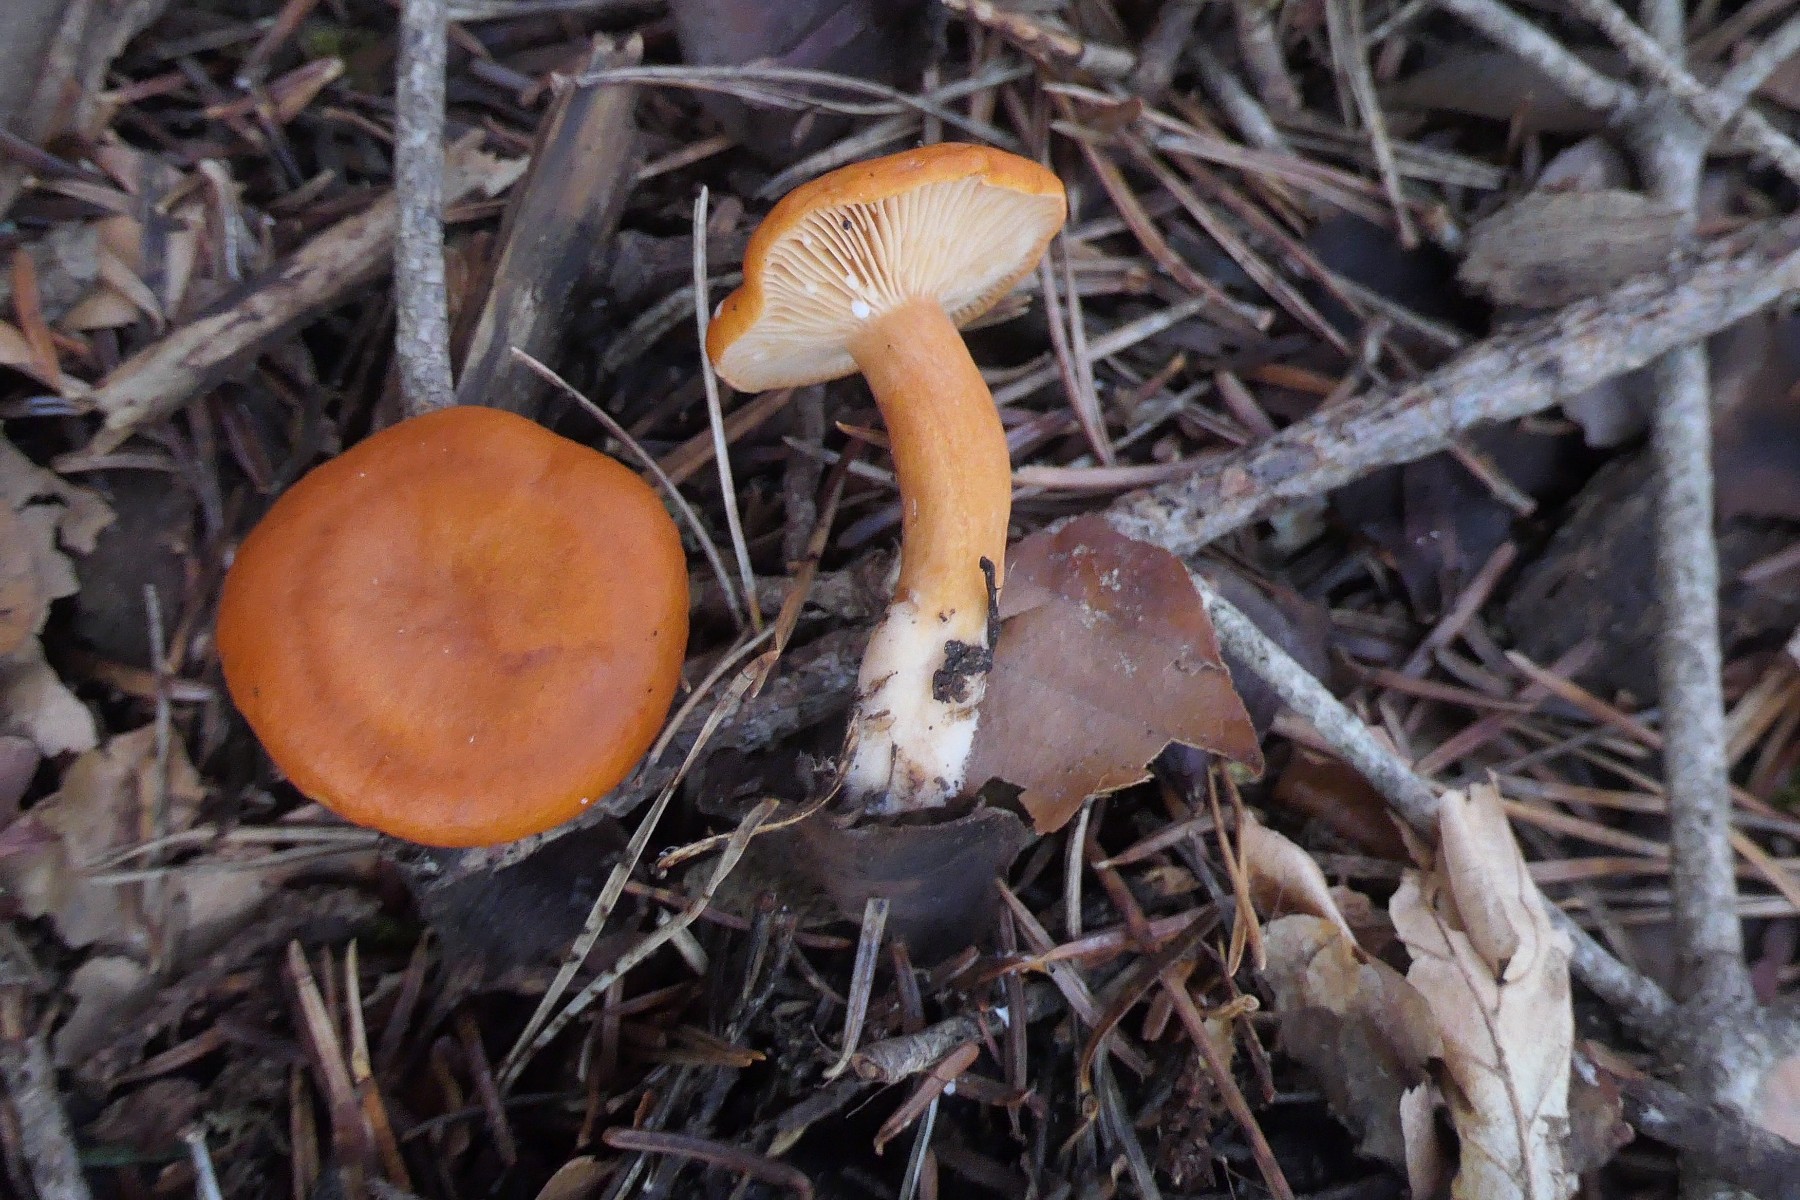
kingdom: Fungi
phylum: Basidiomycota
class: Agaricomycetes
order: Russulales
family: Russulaceae
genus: Lactarius
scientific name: Lactarius aurantiacus
